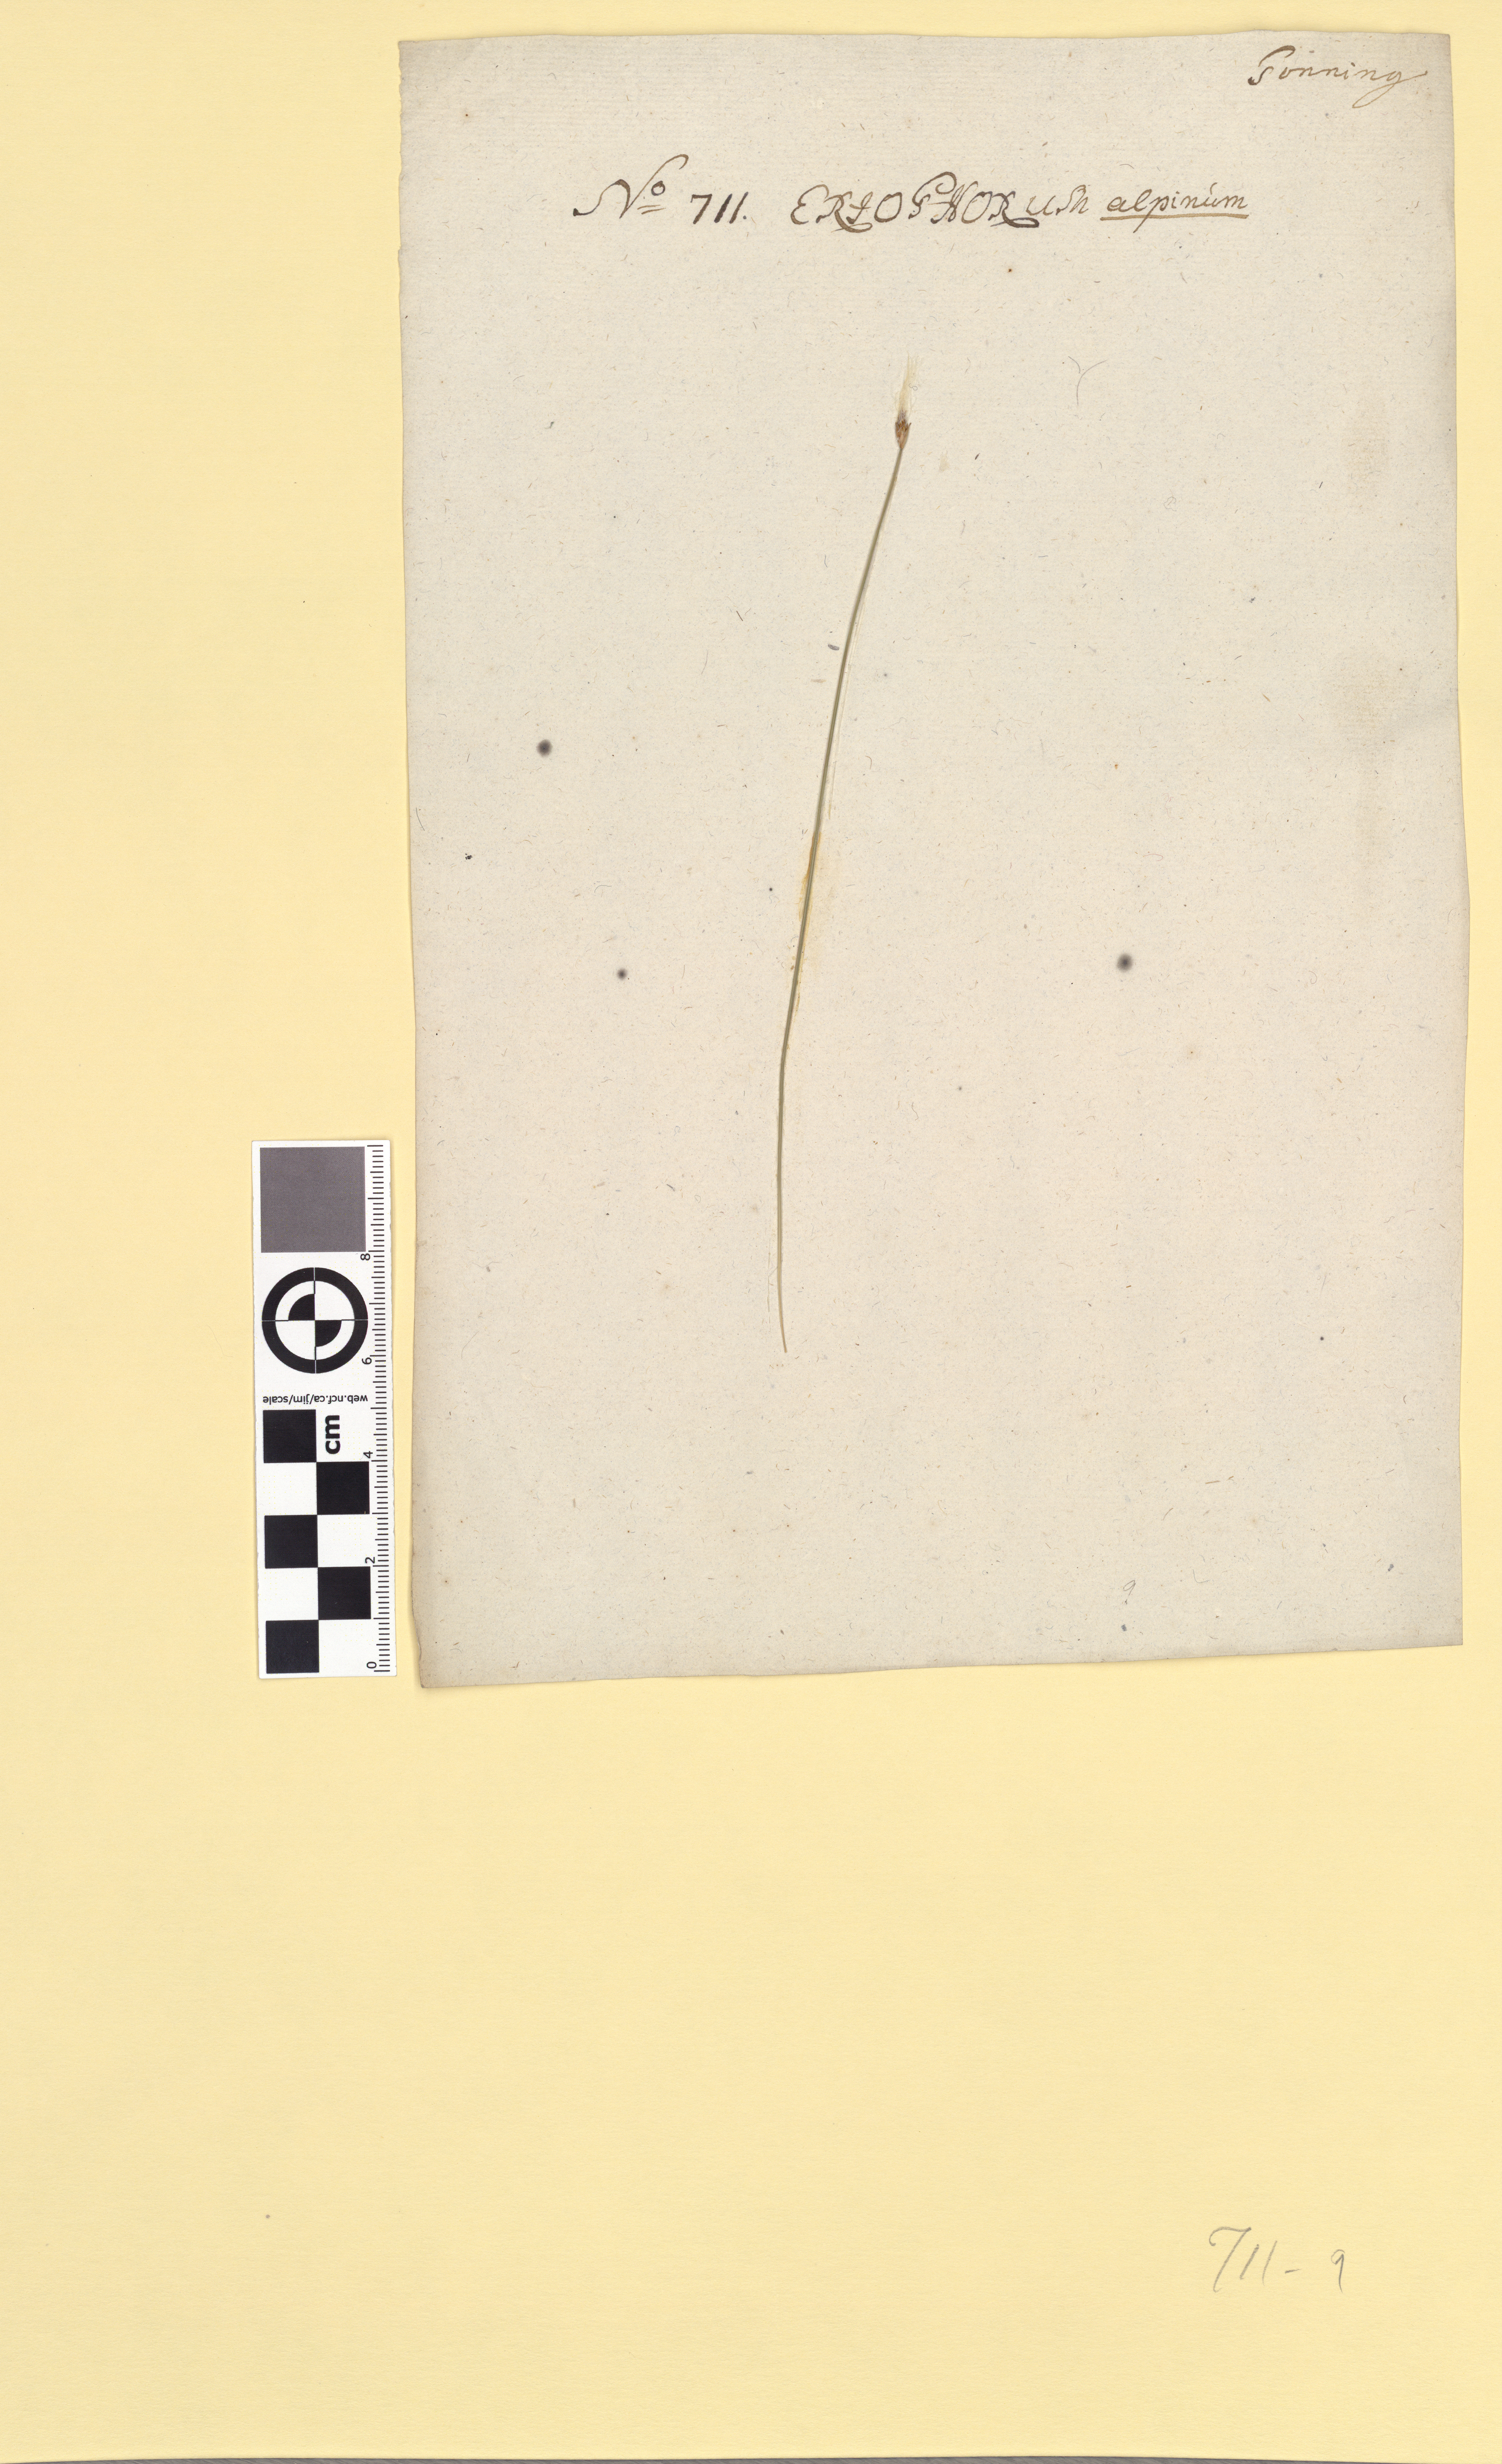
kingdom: Plantae
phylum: Tracheophyta
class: Liliopsida
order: Poales
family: Cyperaceae
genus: Trichophorum
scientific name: Trichophorum alpinum
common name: Alpine bulrush
